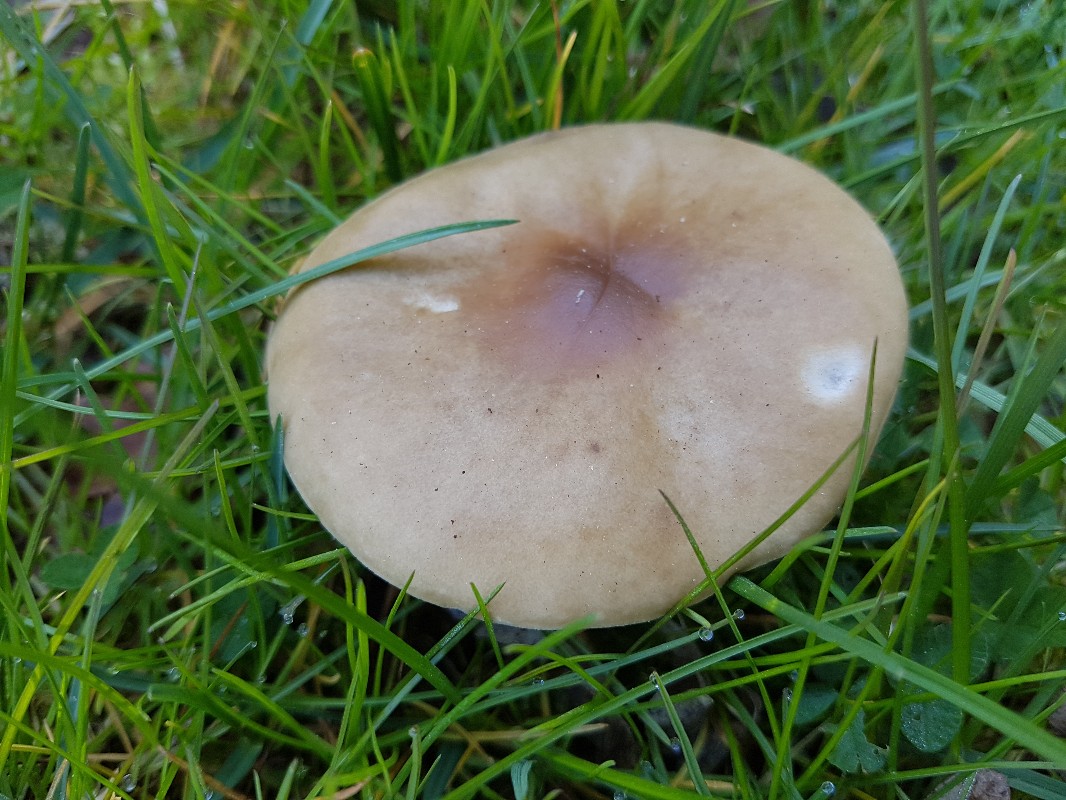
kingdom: Fungi
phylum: Basidiomycota
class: Agaricomycetes
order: Agaricales
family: Tricholomataceae
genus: Melanoleuca
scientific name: Melanoleuca cognata
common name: gyldengrå munkehat
